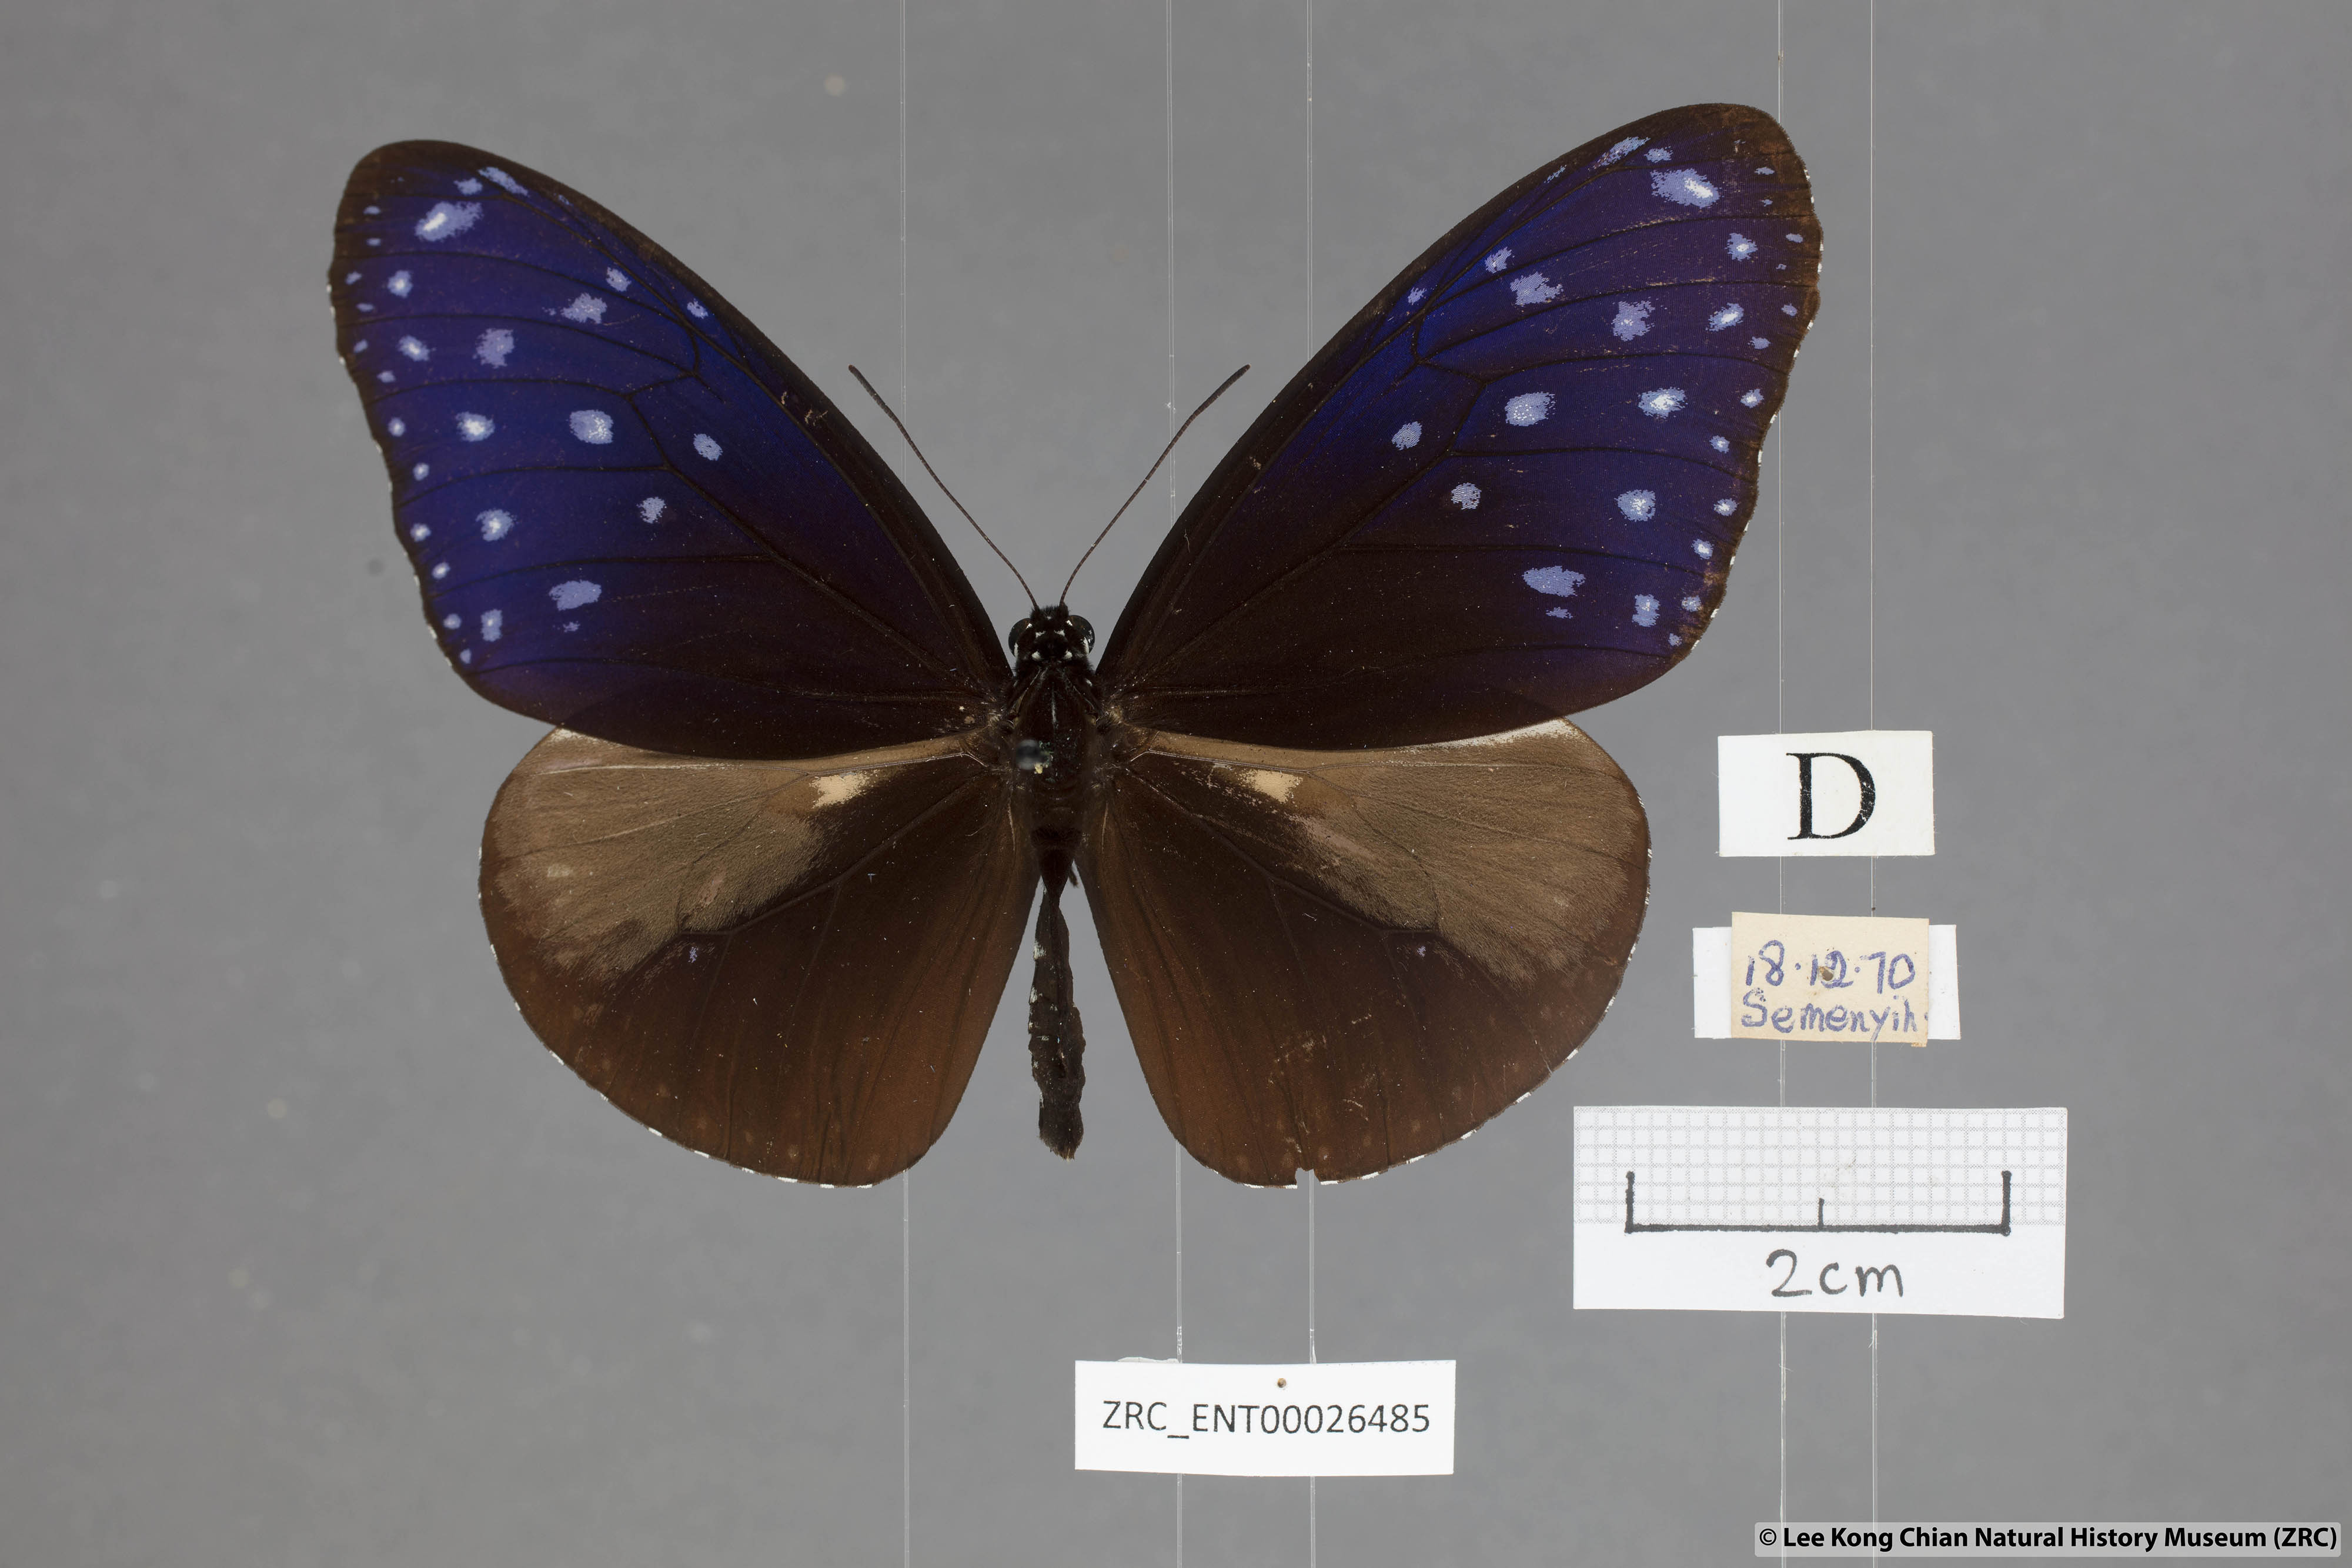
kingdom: Animalia
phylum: Arthropoda
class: Insecta
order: Lepidoptera
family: Nymphalidae
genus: Euploea
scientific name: Euploea mulciber
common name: Striped blue crow butterfly
